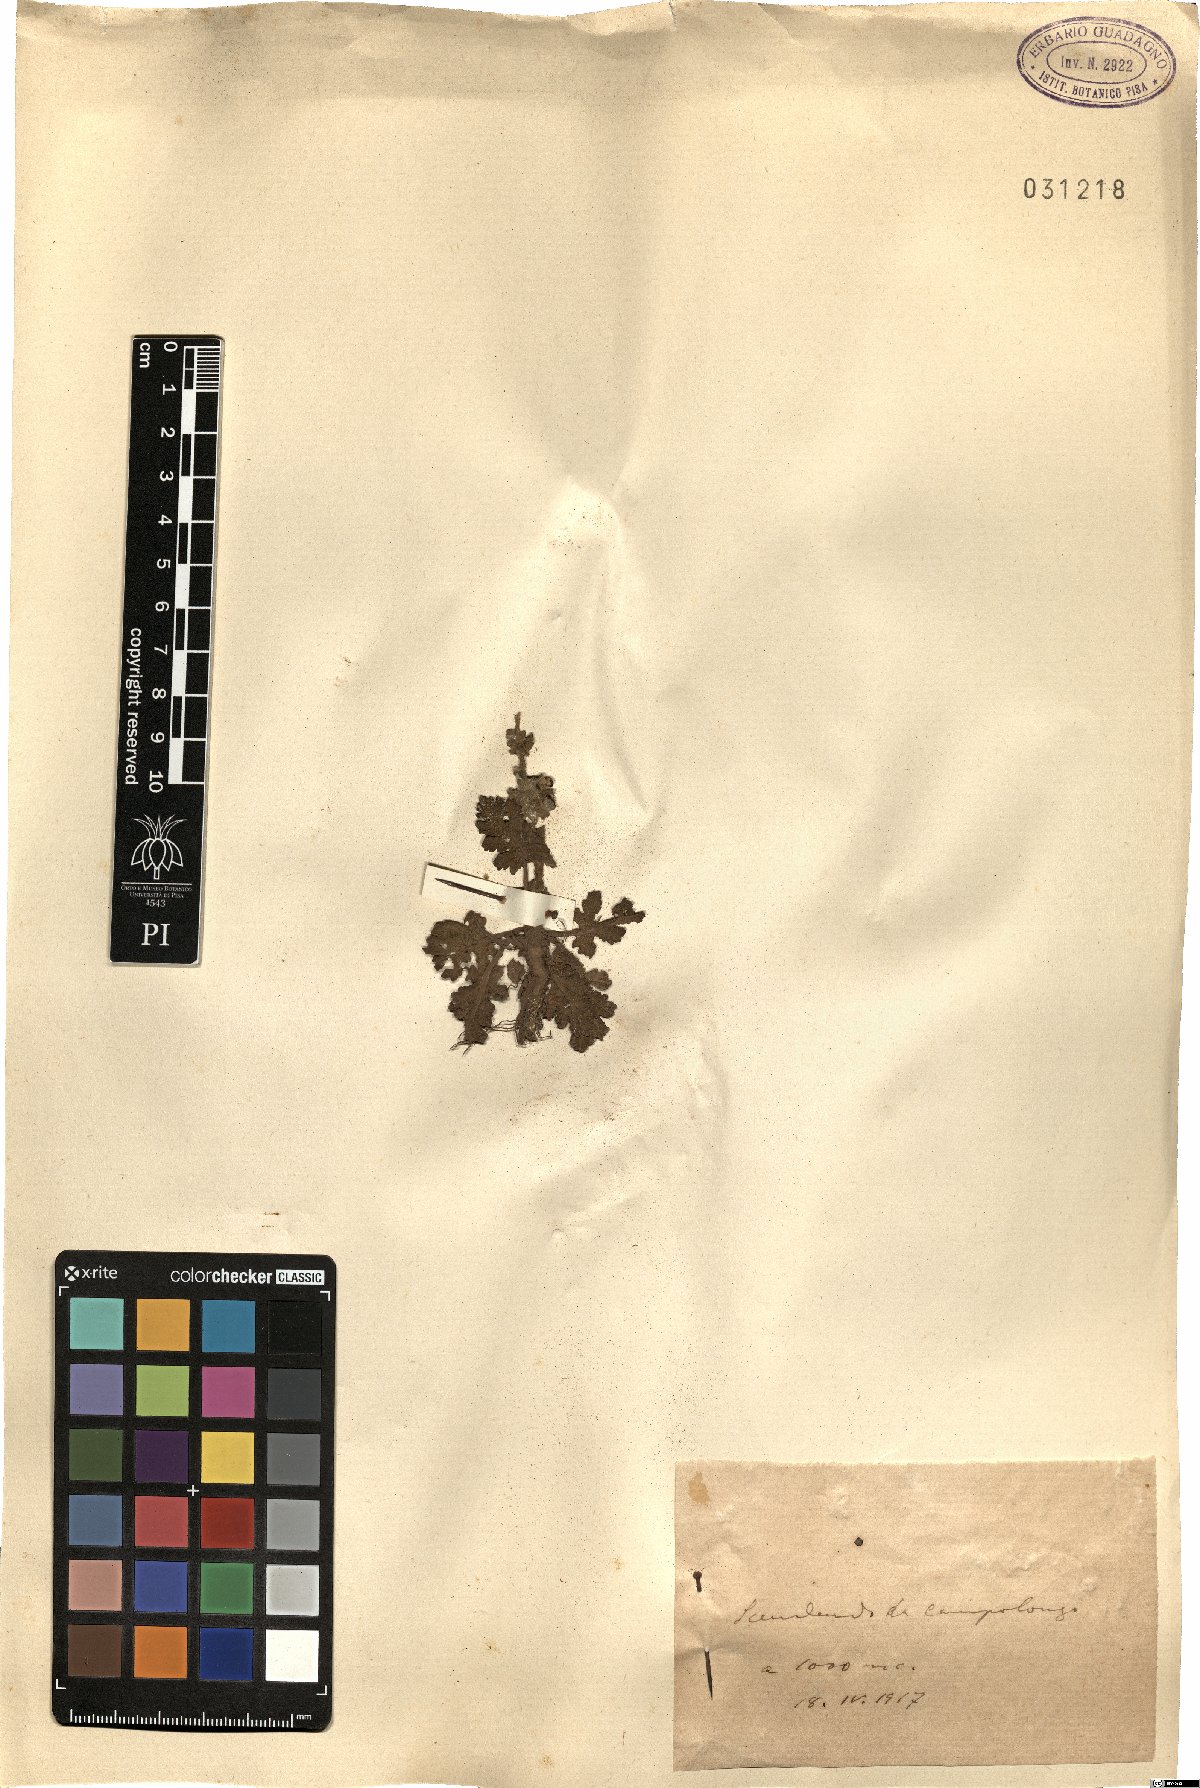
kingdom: Plantae
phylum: Tracheophyta
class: Magnoliopsida
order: Fagales
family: Fagaceae
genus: Quercus
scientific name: Quercus
